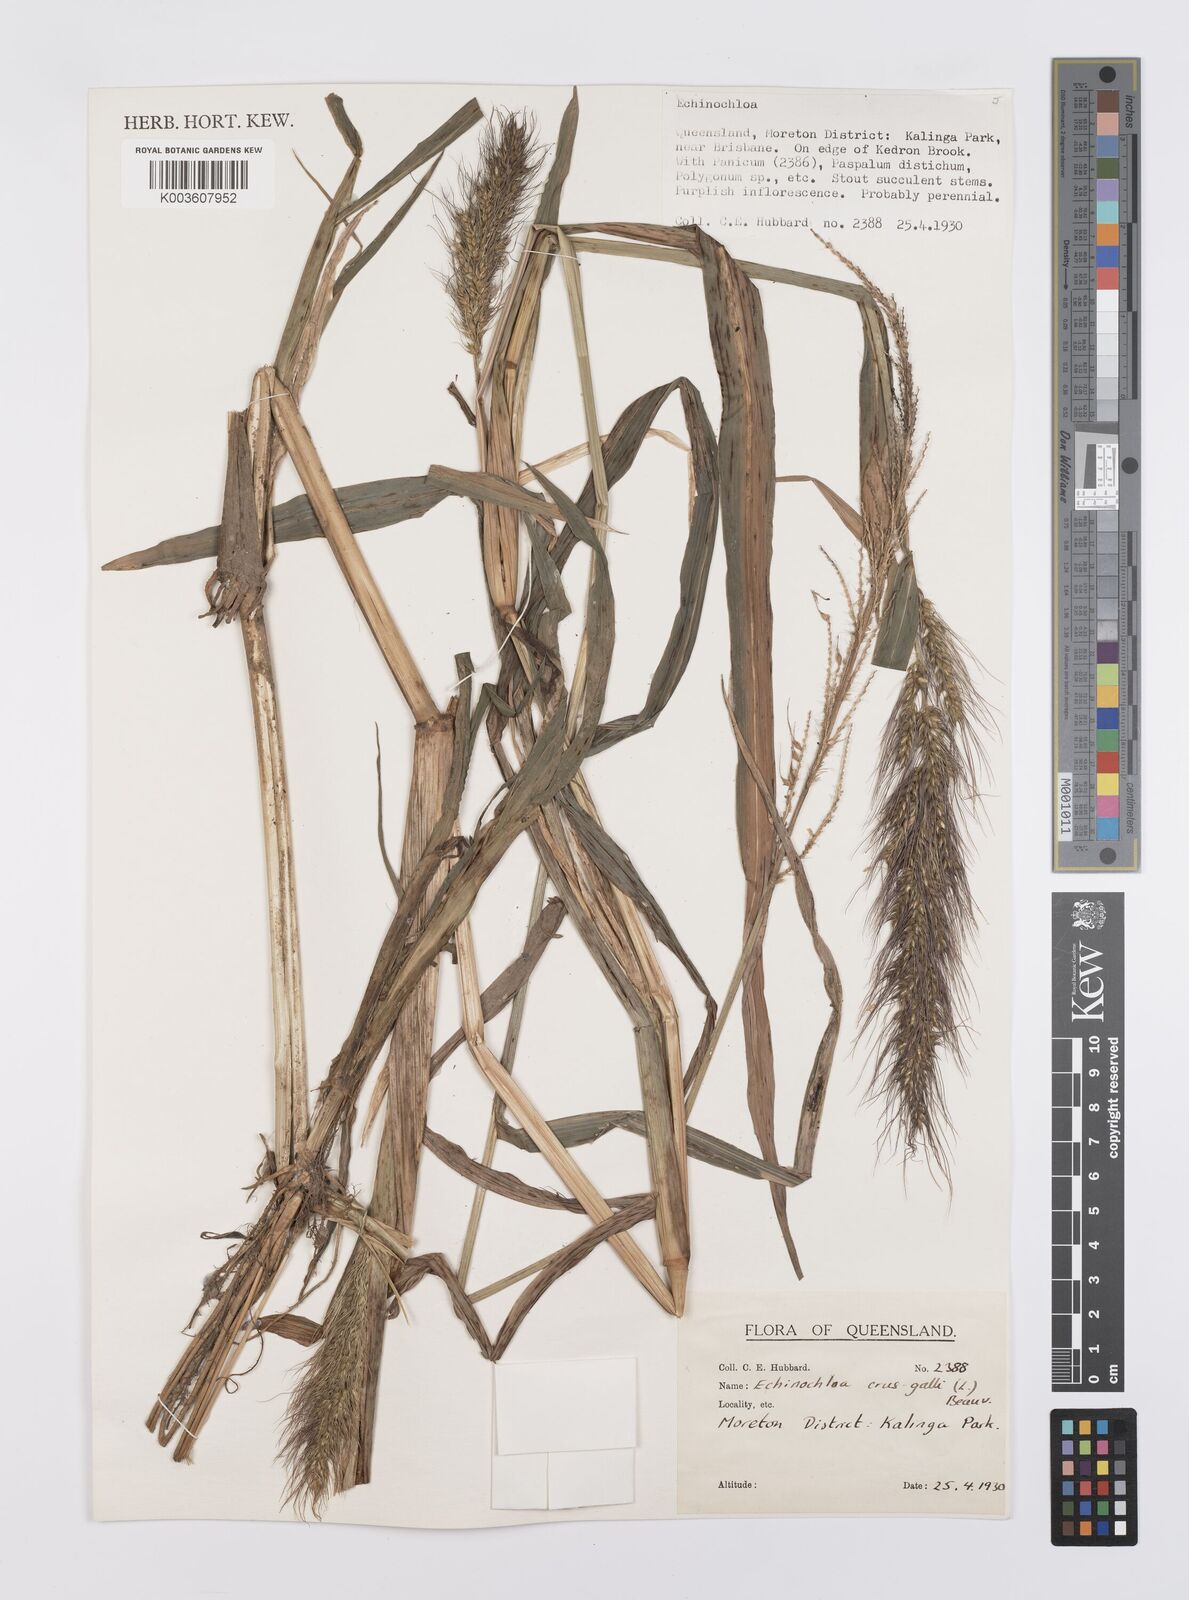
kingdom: Plantae
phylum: Tracheophyta
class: Liliopsida
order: Poales
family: Poaceae
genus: Echinochloa
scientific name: Echinochloa crus-galli
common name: Cockspur
